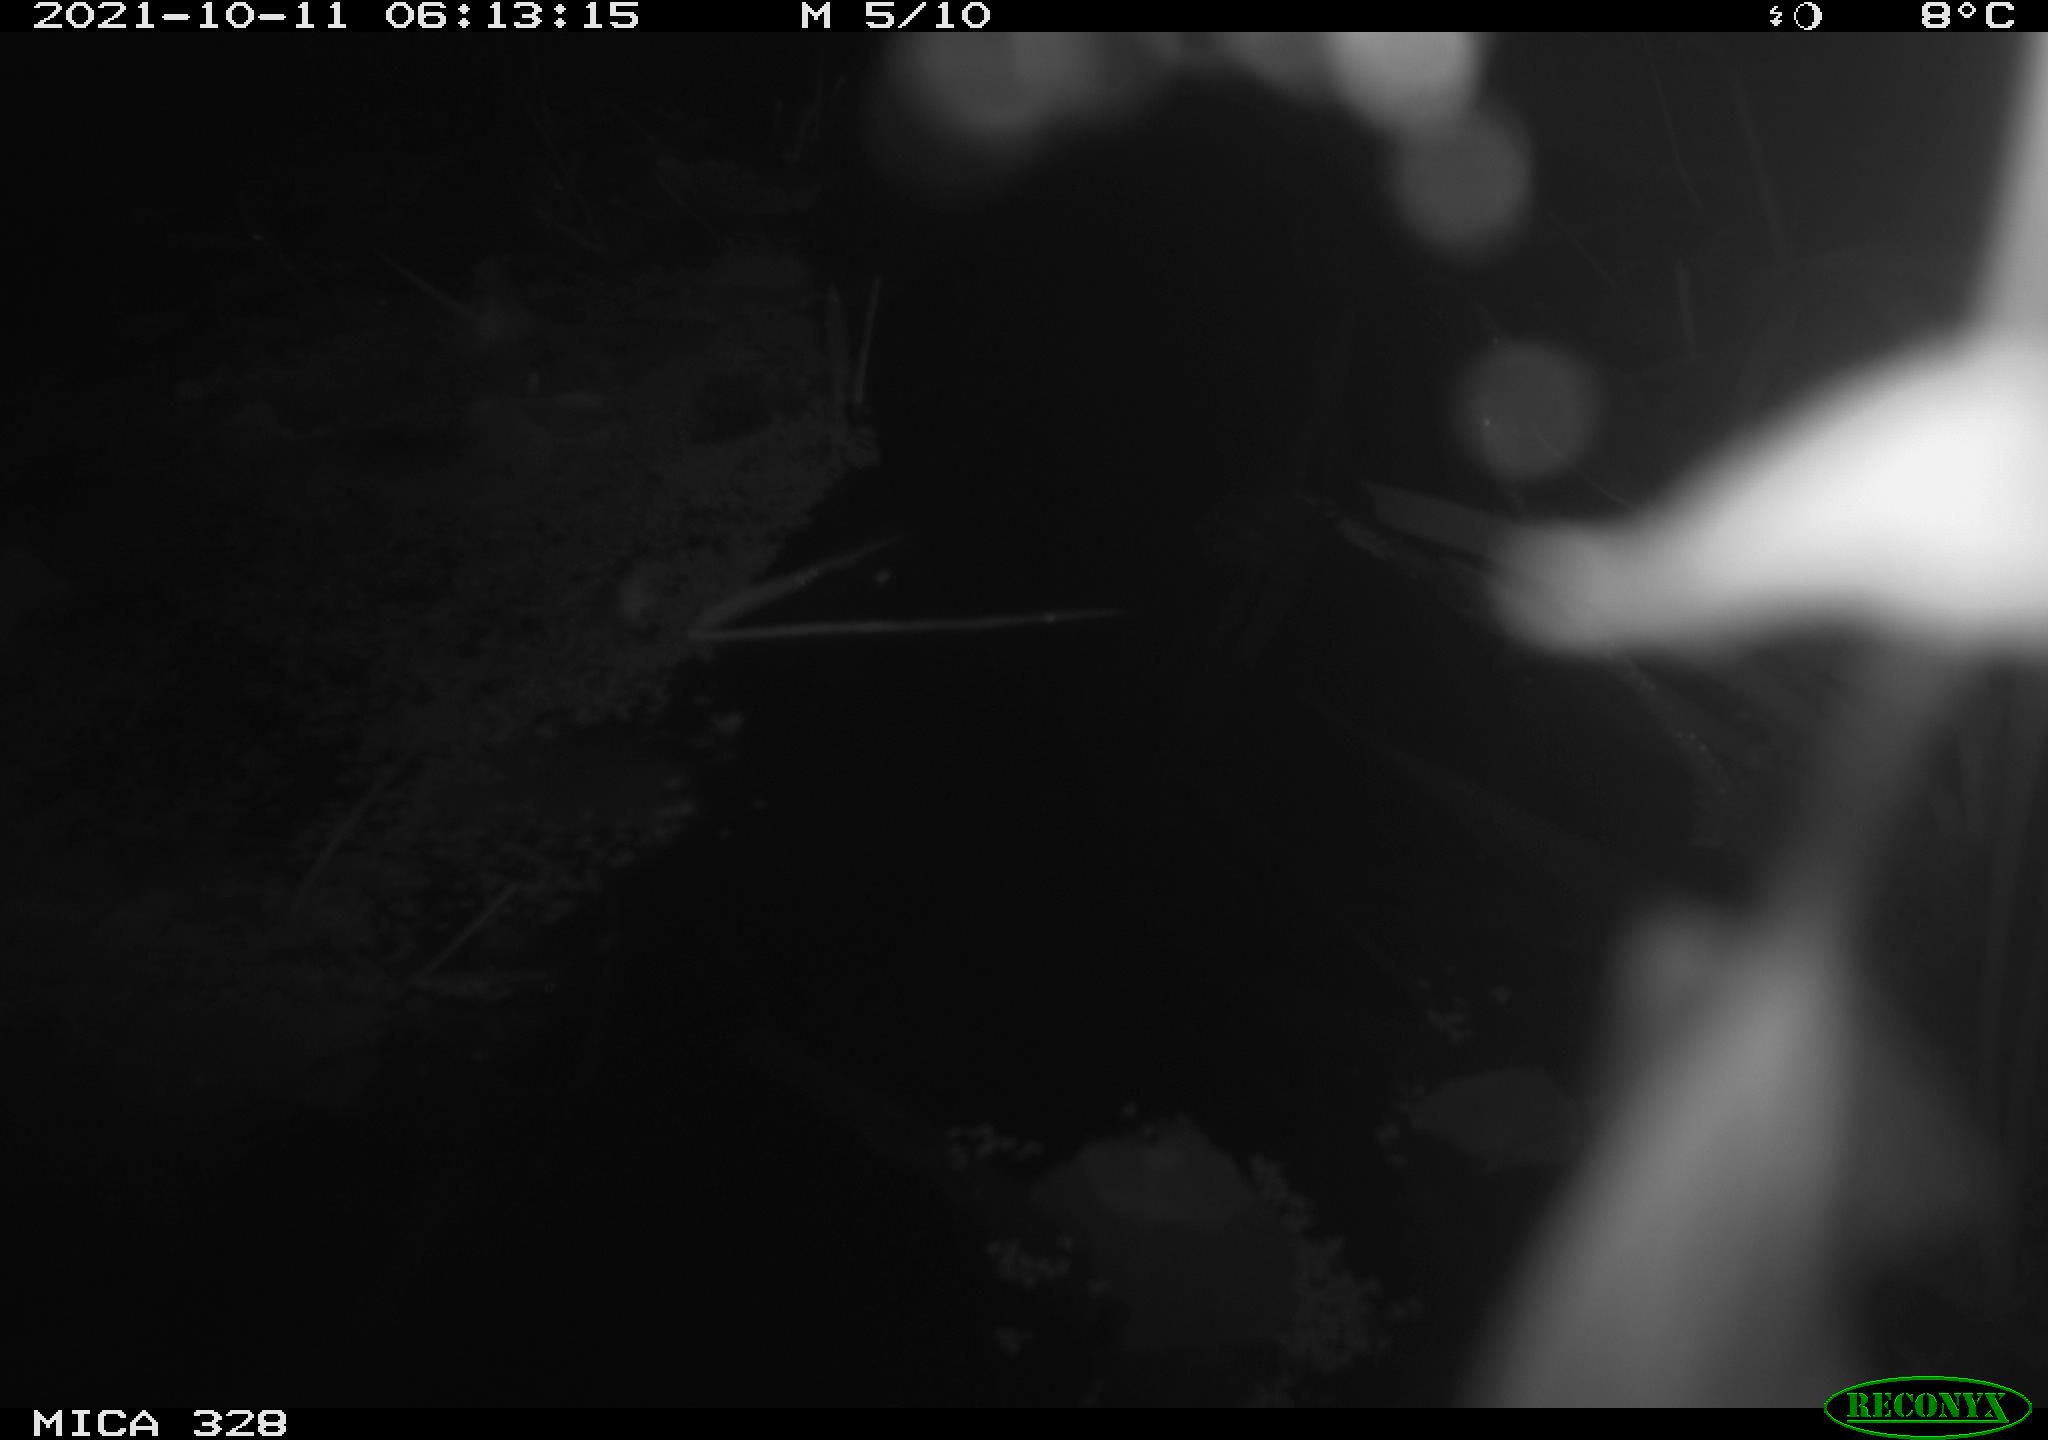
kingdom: Animalia
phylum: Chordata
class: Mammalia
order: Rodentia
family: Cricetidae
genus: Ondatra
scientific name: Ondatra zibethicus
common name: Muskrat
